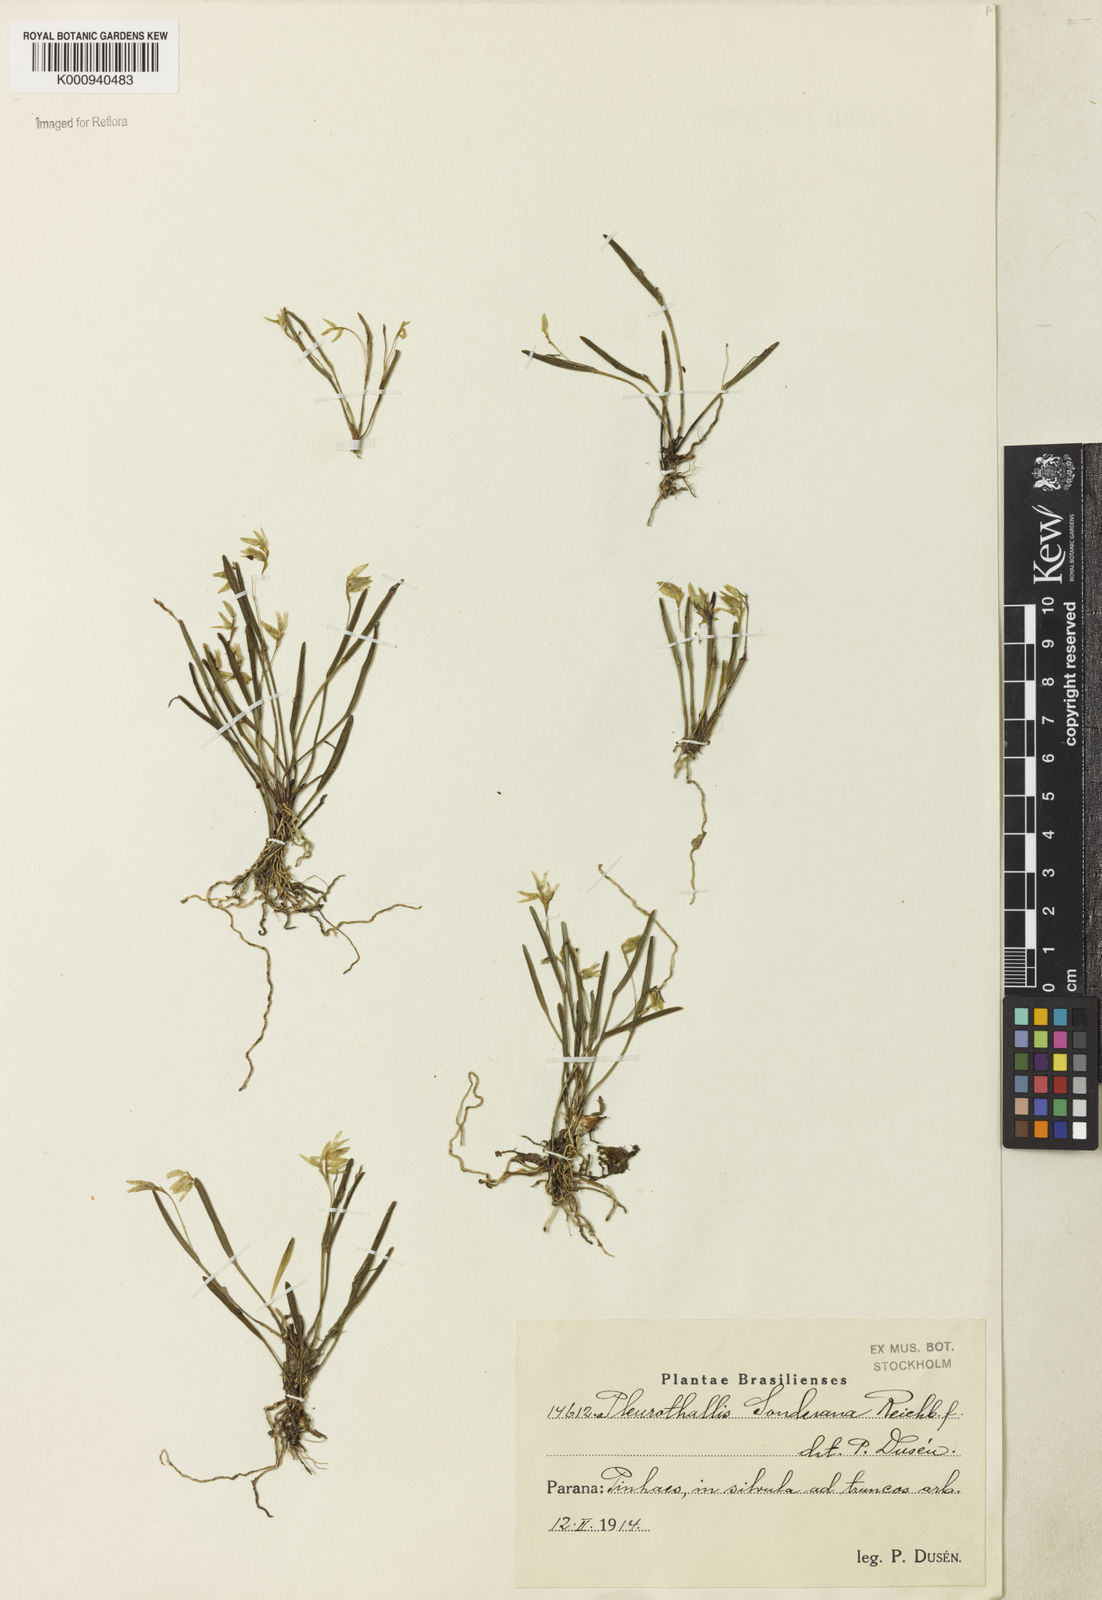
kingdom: Plantae
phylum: Tracheophyta
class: Liliopsida
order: Asparagales
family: Orchidaceae
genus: Acianthera
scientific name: Acianthera sonderiana
